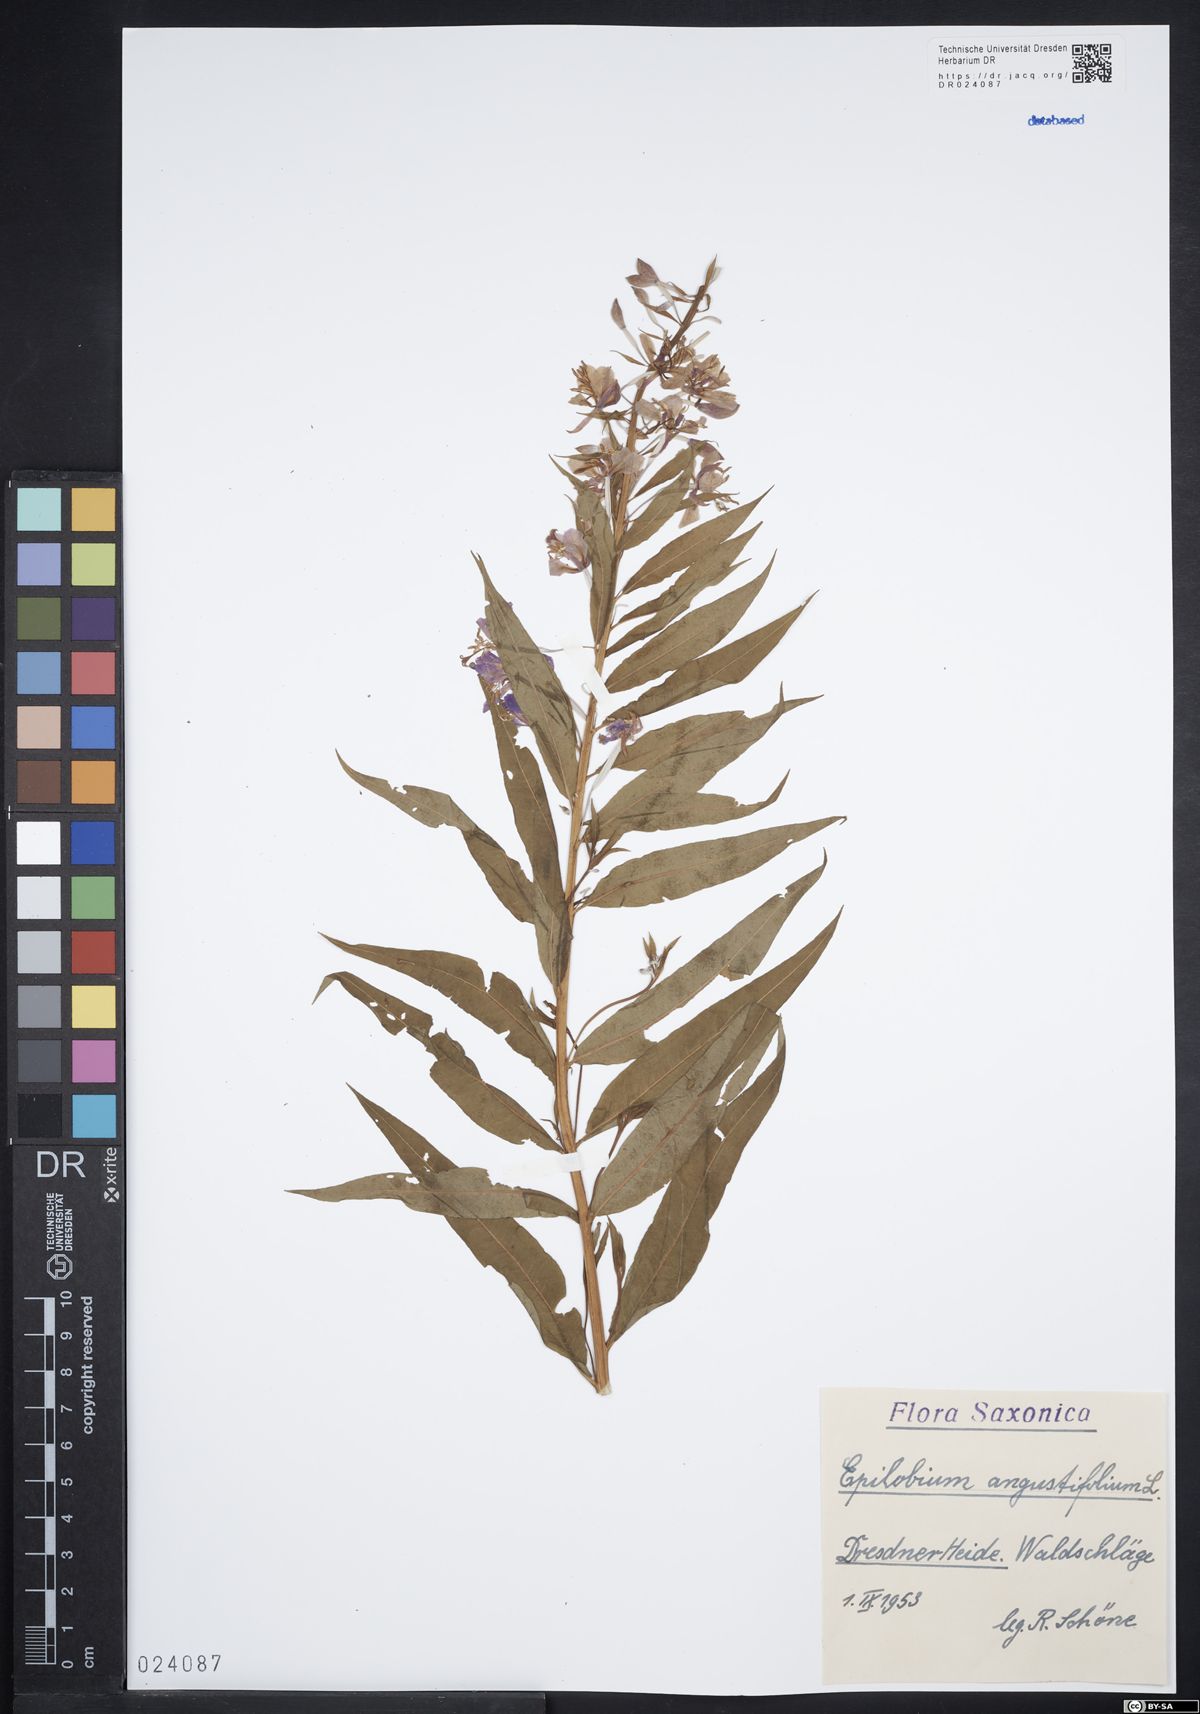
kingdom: Plantae
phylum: Tracheophyta
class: Magnoliopsida
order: Myrtales
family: Onagraceae
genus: Chamaenerion
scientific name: Chamaenerion angustifolium
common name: Fireweed
